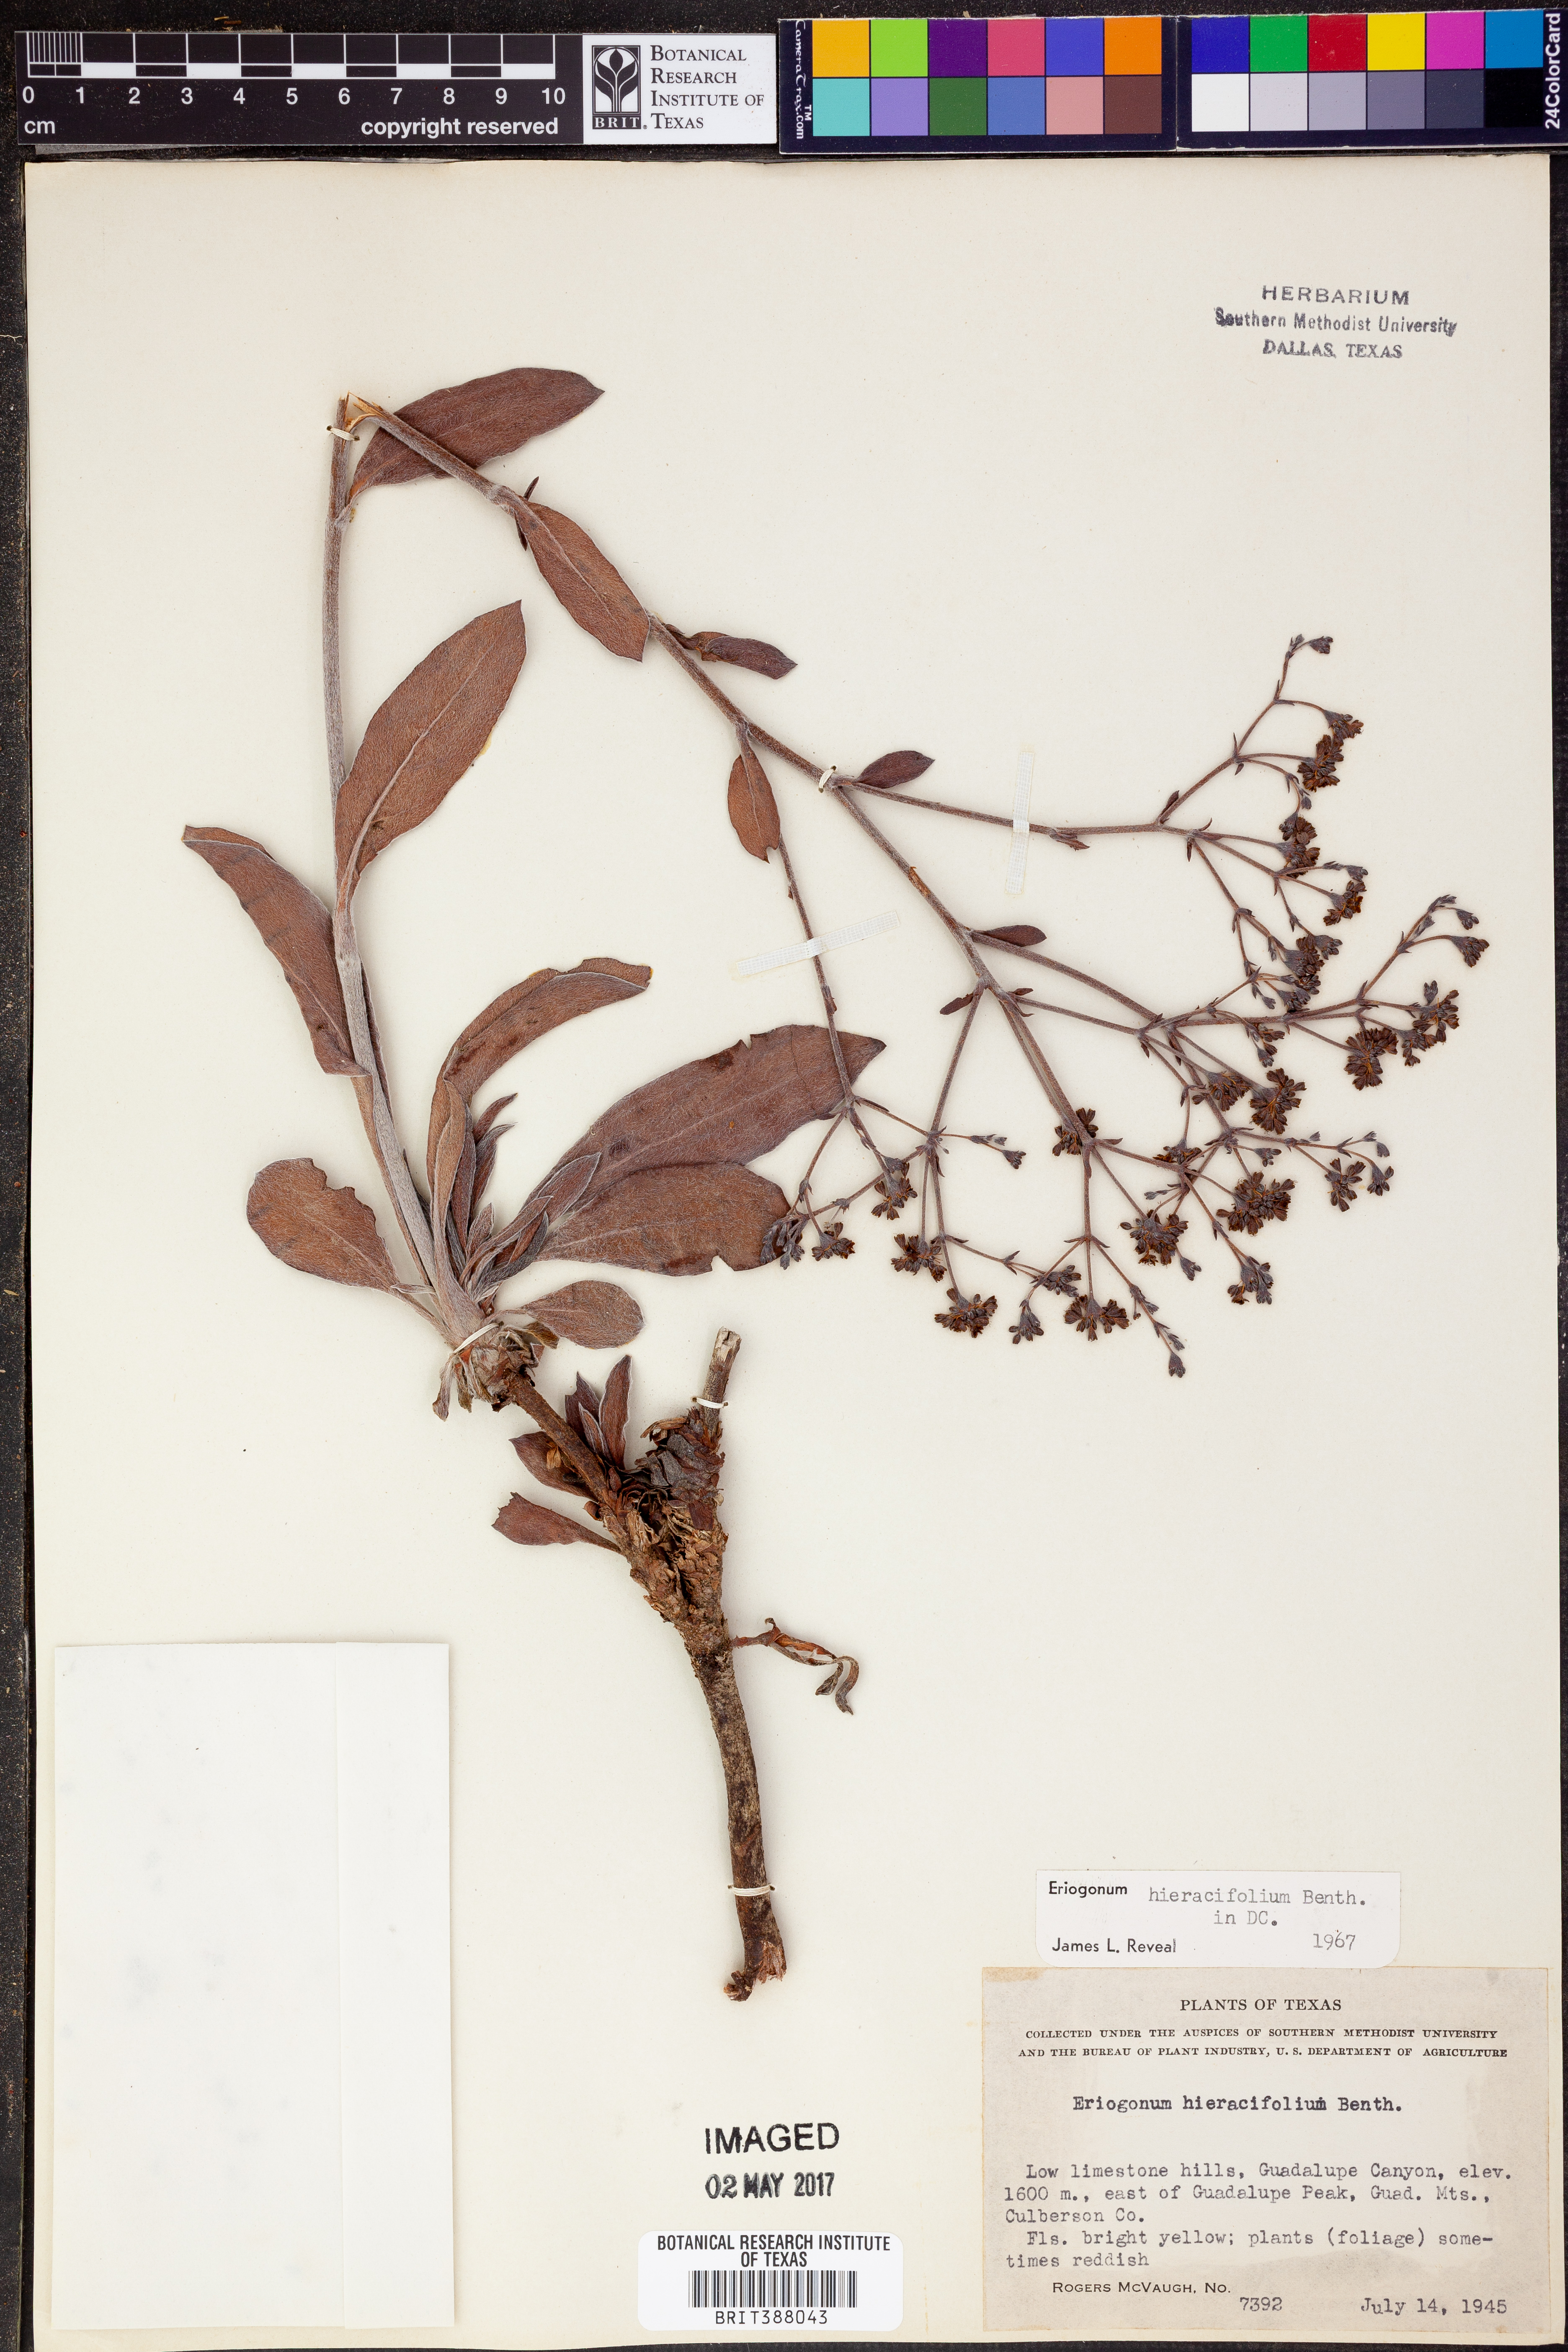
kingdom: Plantae
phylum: Tracheophyta
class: Magnoliopsida
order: Caryophyllales
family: Polygonaceae
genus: Eriogonum
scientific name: Eriogonum hieraciifolium
